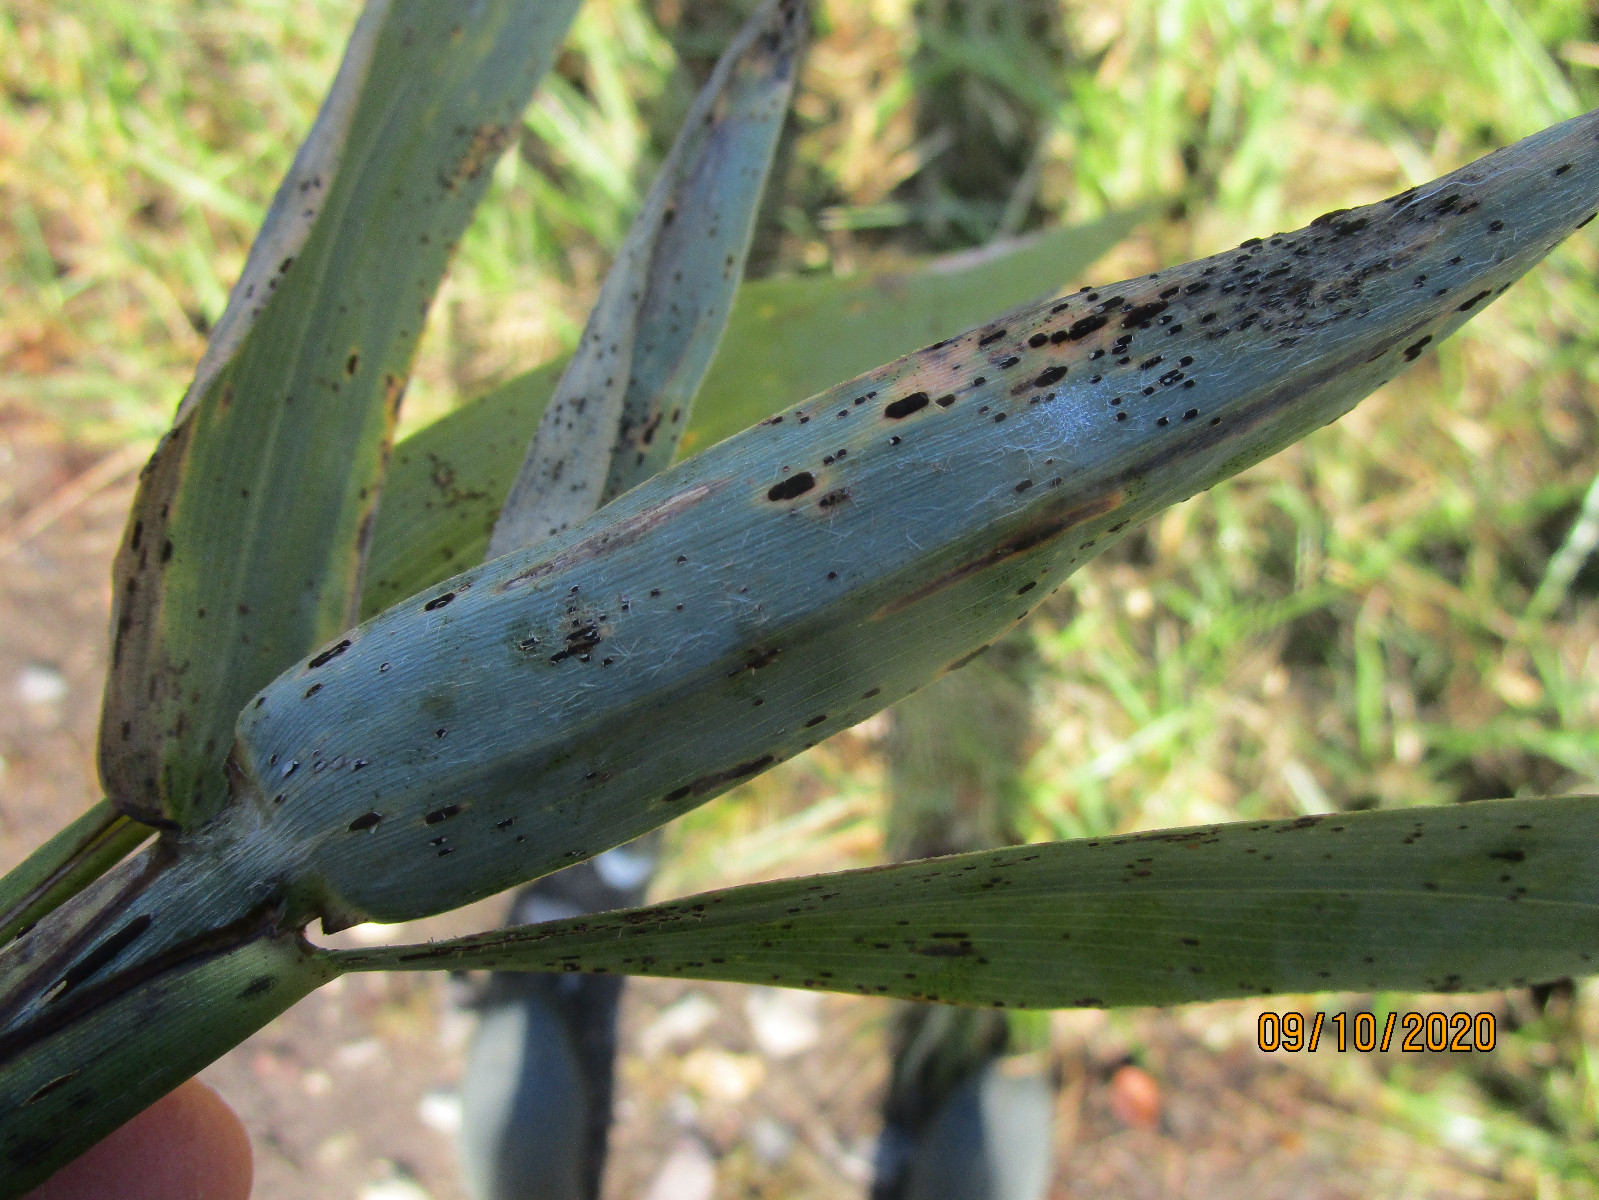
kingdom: Fungi
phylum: Basidiomycota
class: Pucciniomycetes
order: Pucciniales
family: Pucciniaceae
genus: Puccinia
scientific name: Puccinia phragmitis
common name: tagrør-tvecellerust
